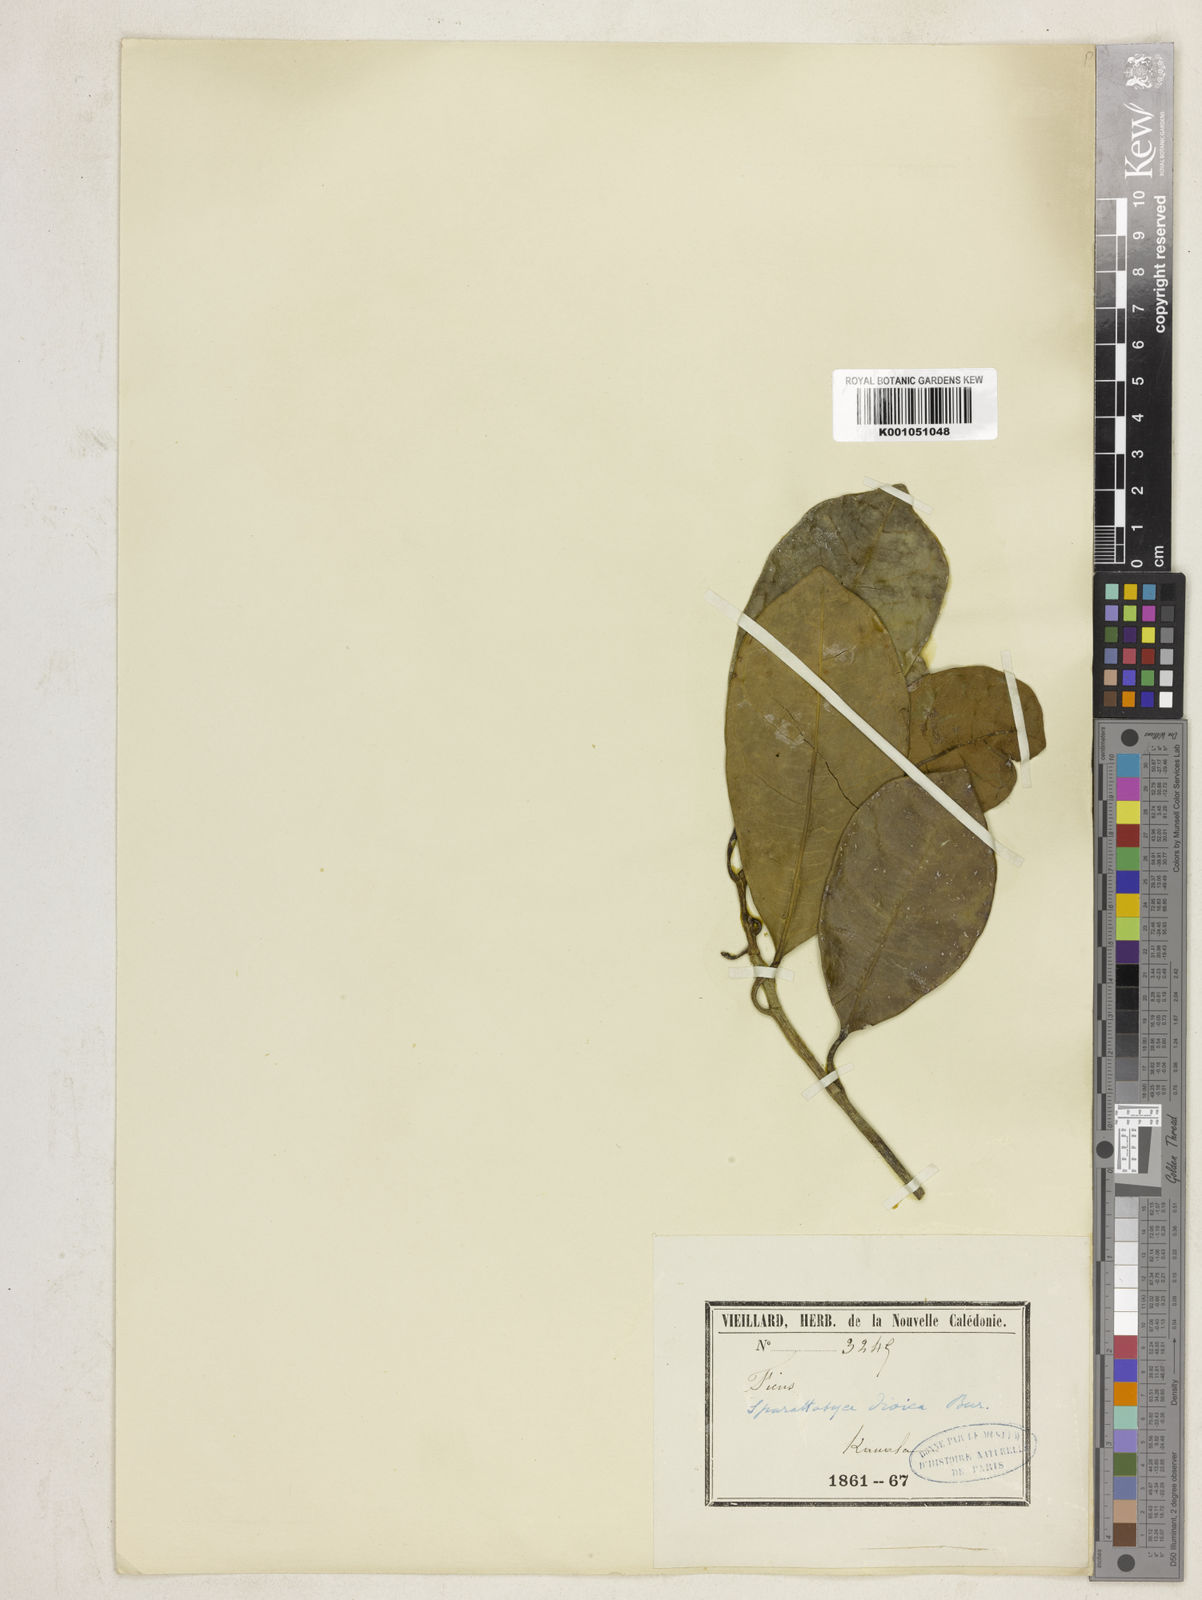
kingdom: Plantae
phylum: Tracheophyta
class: Magnoliopsida
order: Rosales
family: Moraceae
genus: Sparattosyce
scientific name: Sparattosyce dioica
